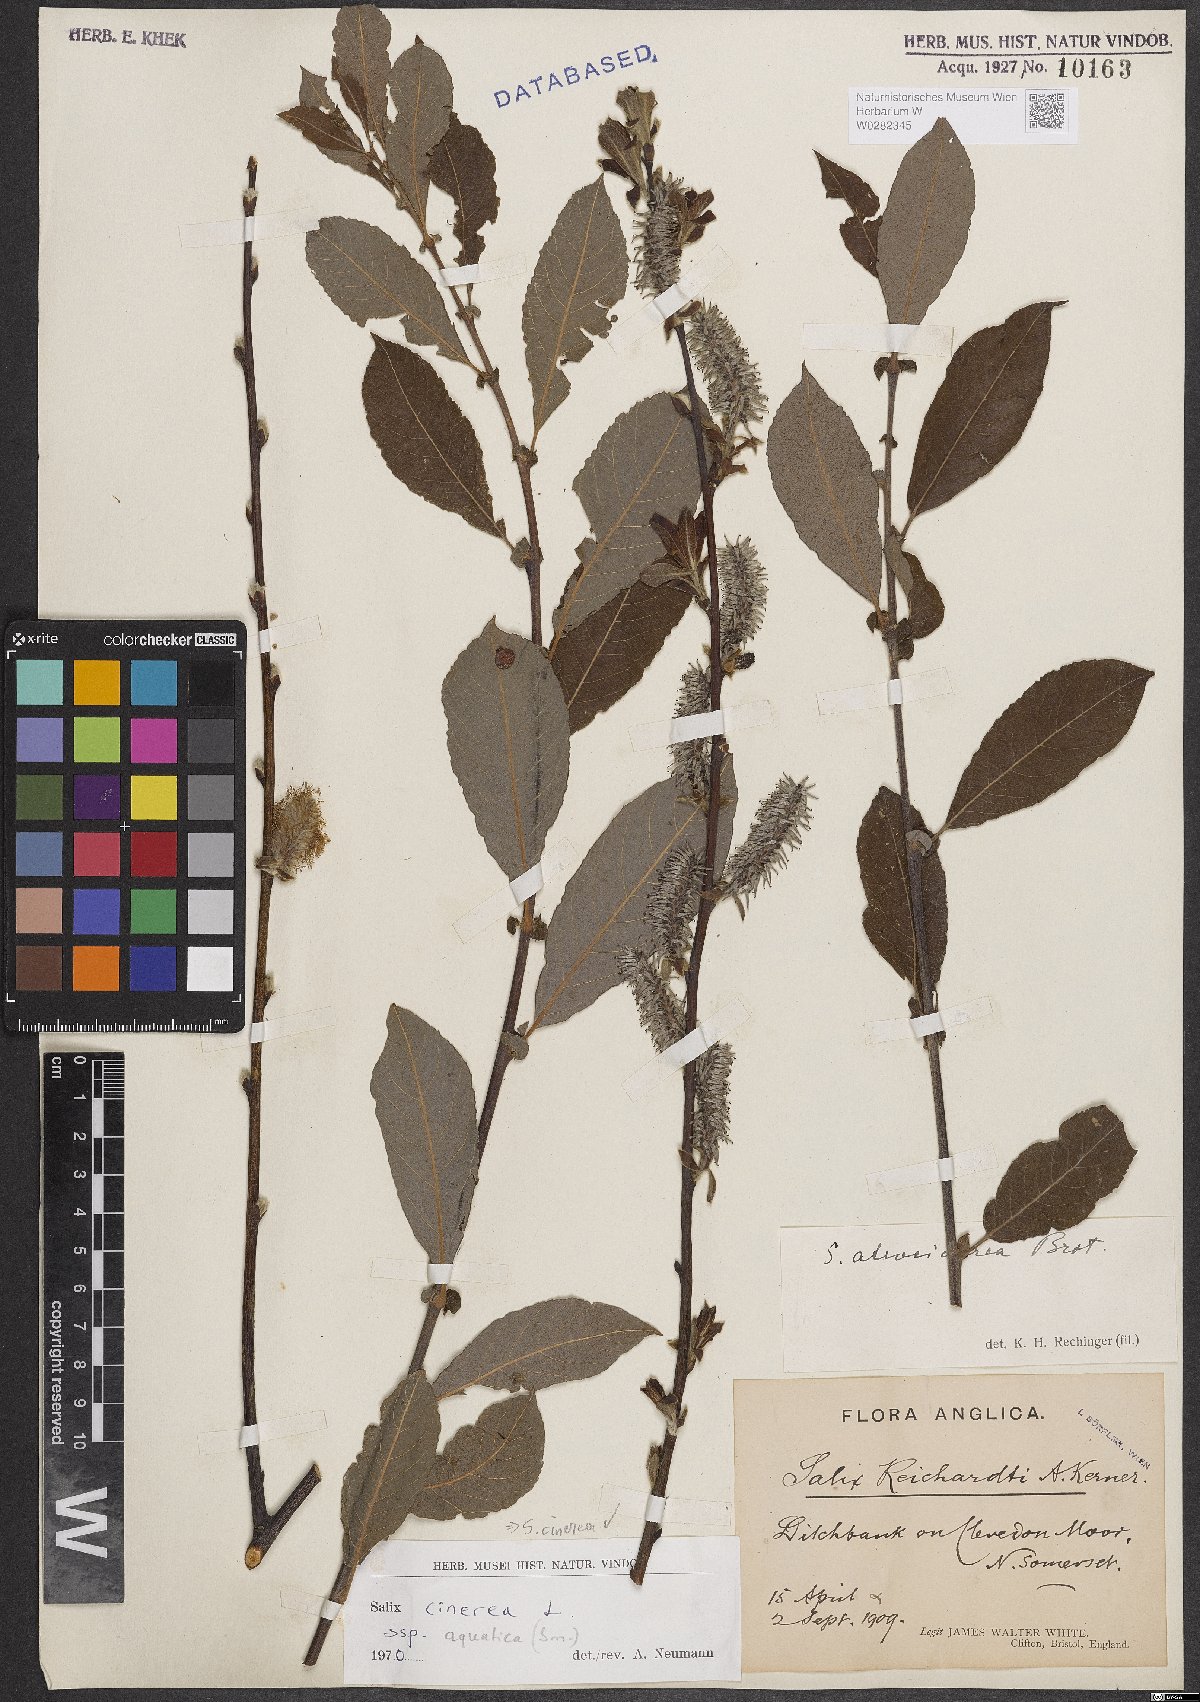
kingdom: Plantae
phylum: Tracheophyta
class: Magnoliopsida
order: Malpighiales
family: Salicaceae
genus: Salix
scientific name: Salix cinerea
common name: Common sallow
